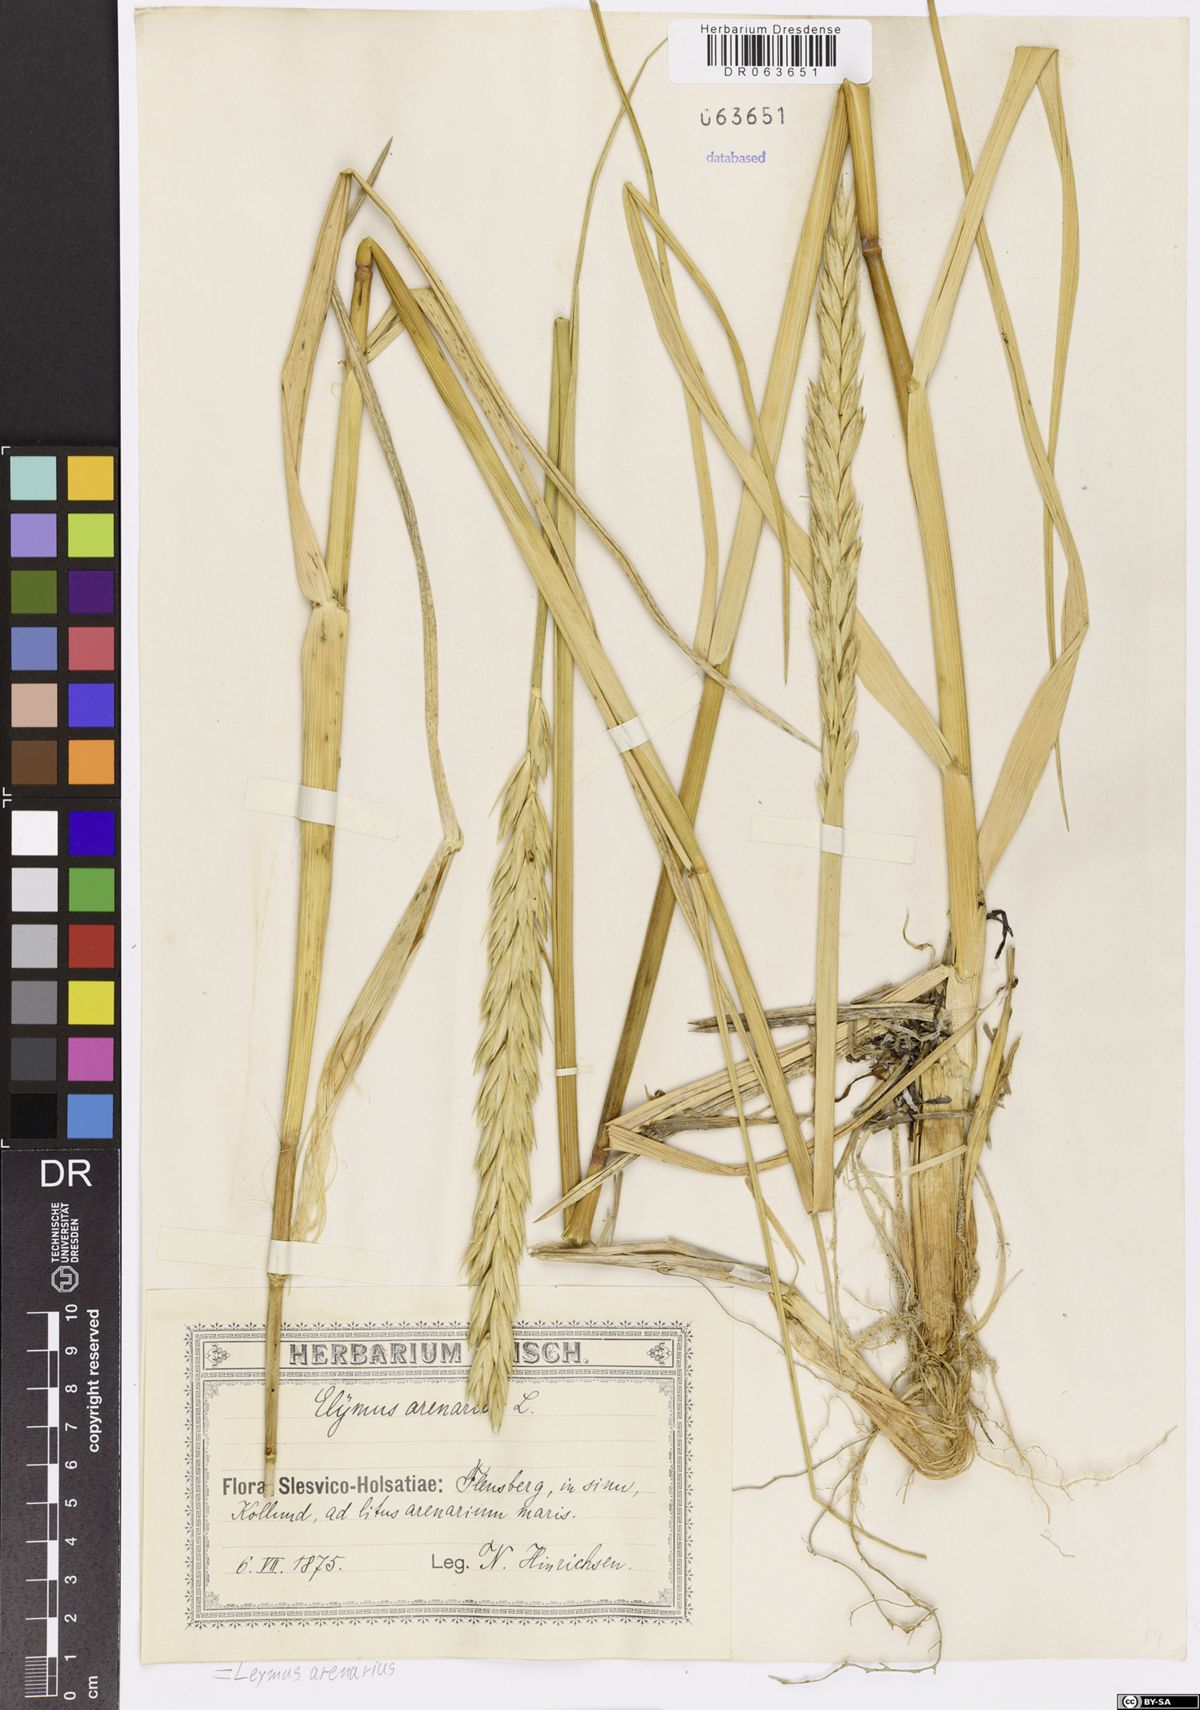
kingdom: Plantae
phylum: Tracheophyta
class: Liliopsida
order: Poales
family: Poaceae
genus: Leymus
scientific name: Leymus arenarius
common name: Lyme-grass
